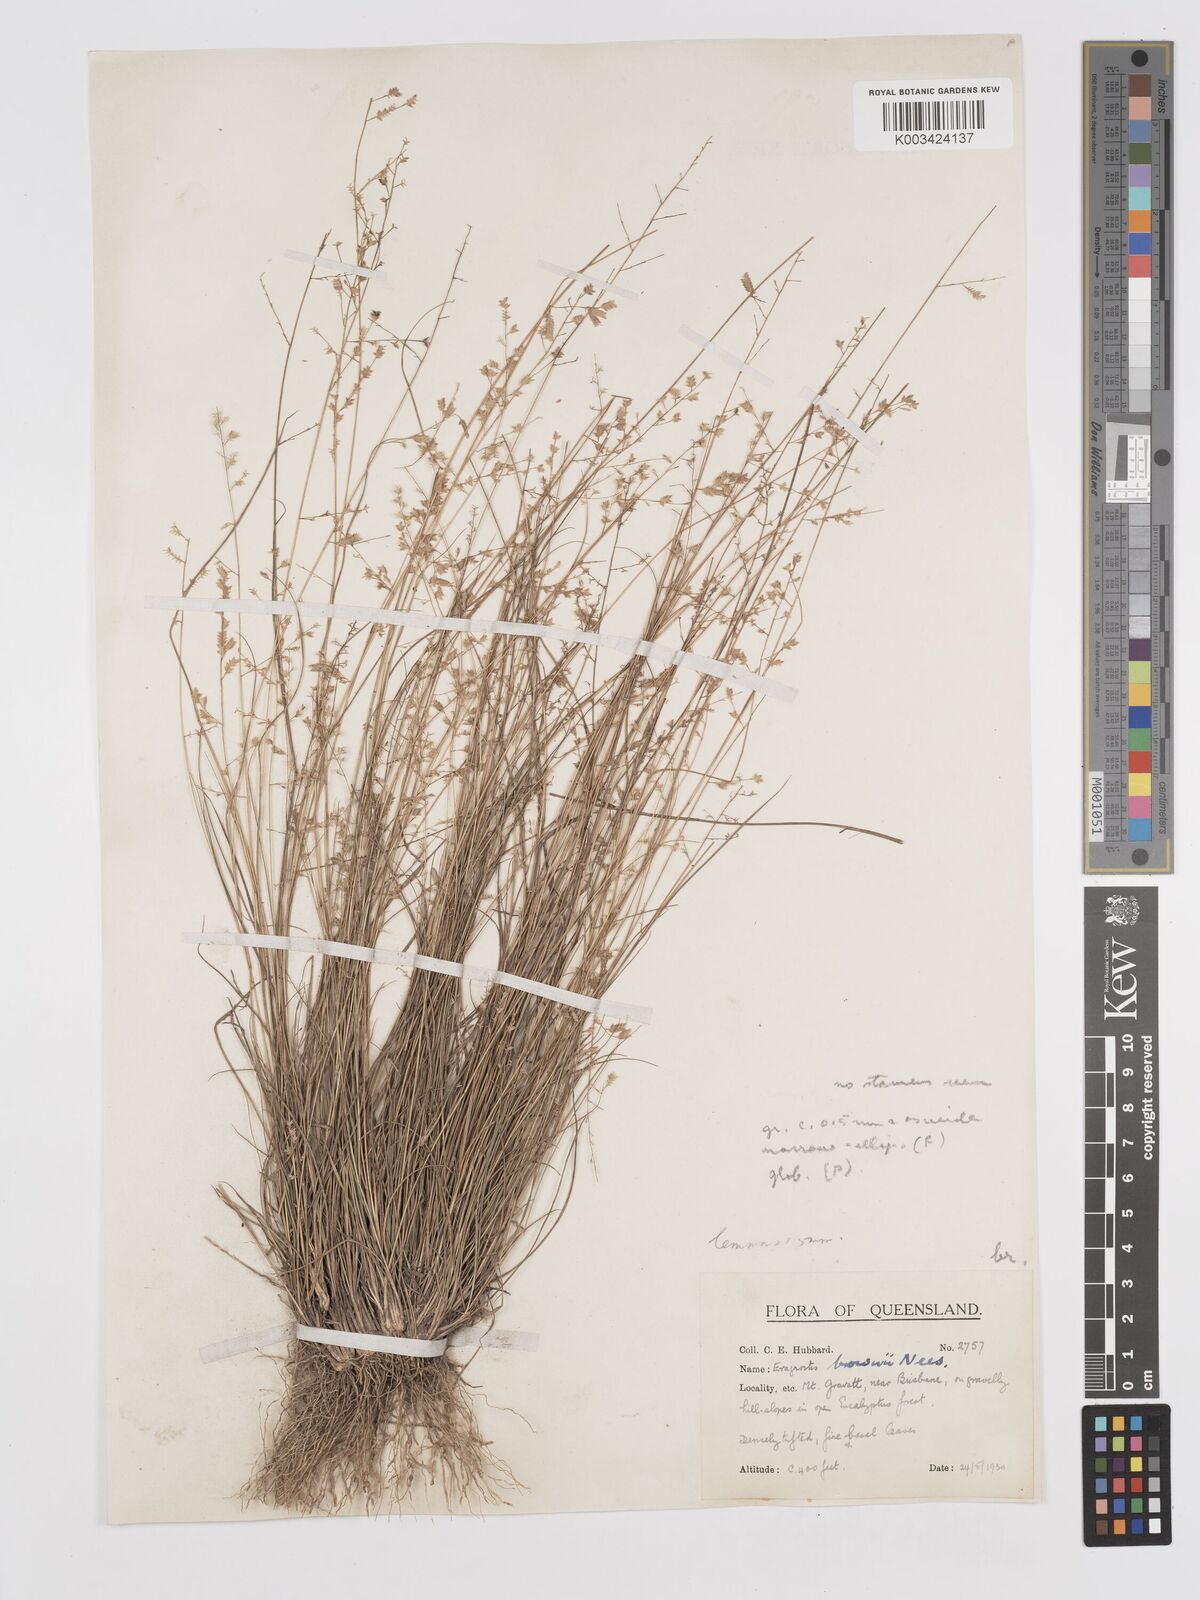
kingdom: Plantae
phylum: Tracheophyta
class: Liliopsida
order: Poales
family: Poaceae
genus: Eragrostis
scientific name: Eragrostis brownii
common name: Lovegrass
